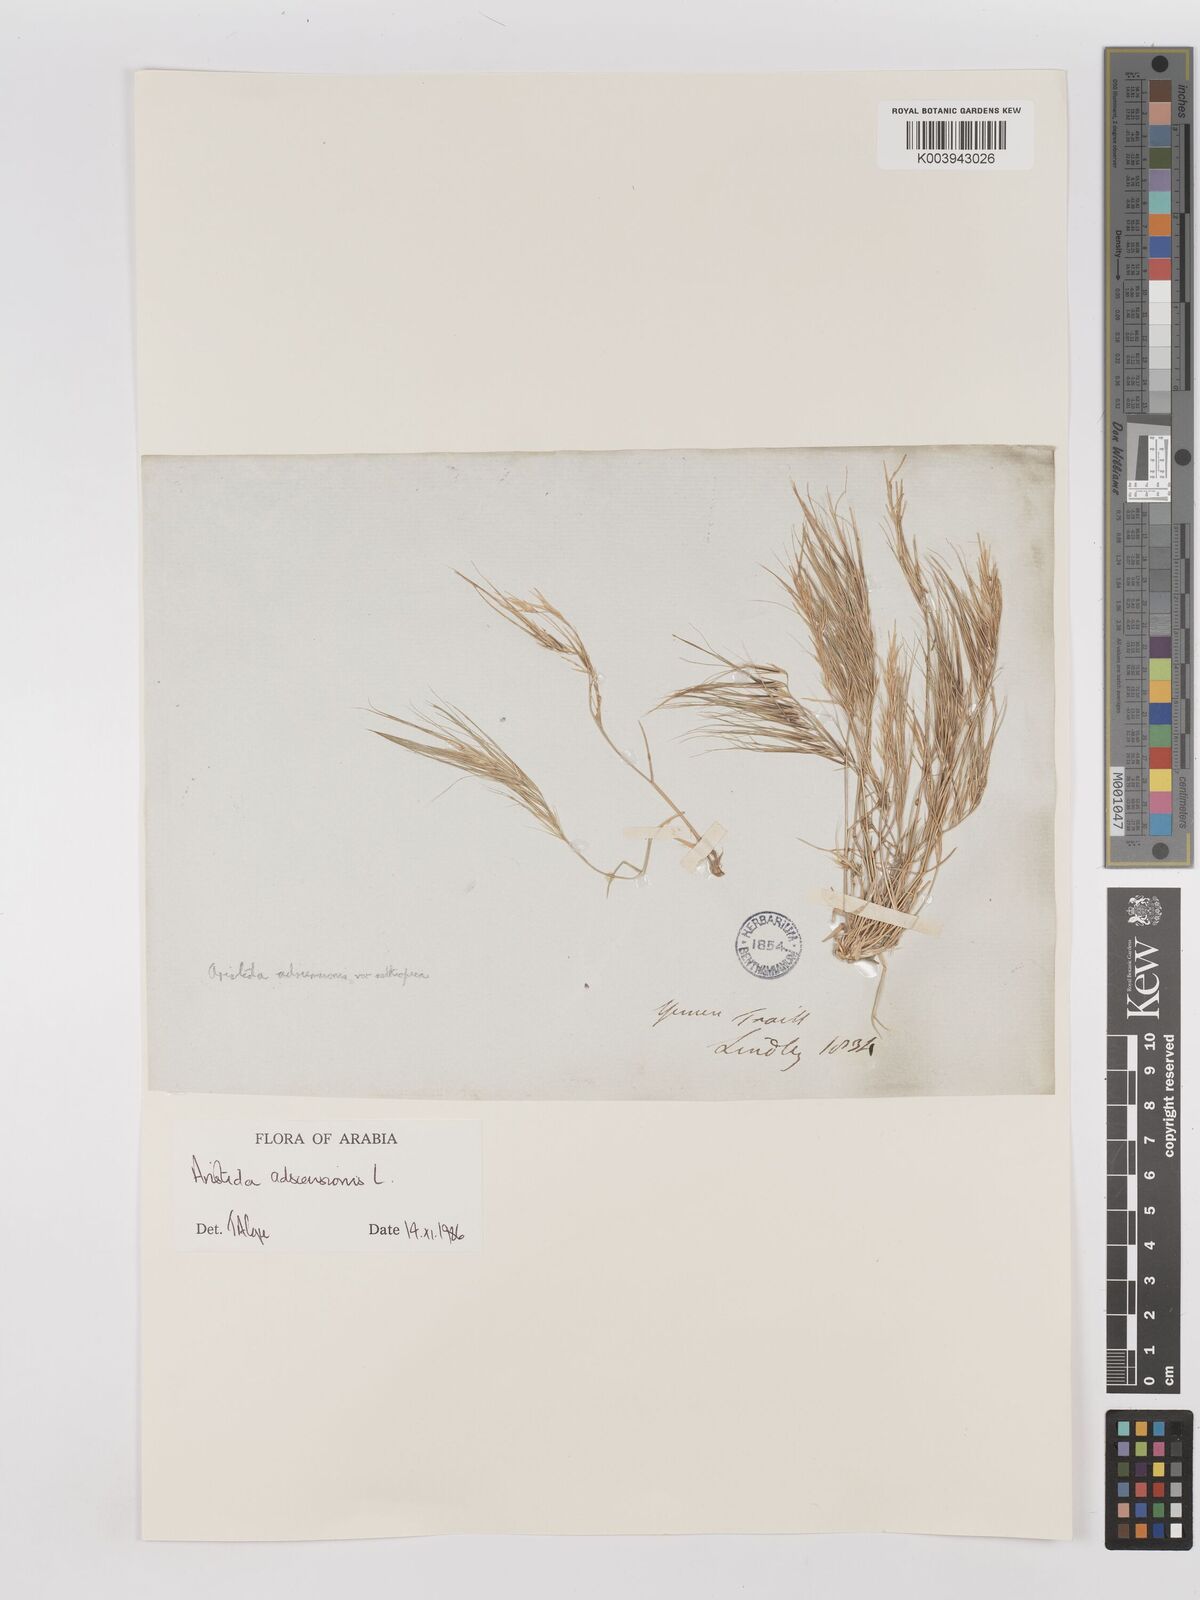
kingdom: Plantae
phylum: Tracheophyta
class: Liliopsida
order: Poales
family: Poaceae
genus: Aristida
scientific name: Aristida adscensionis
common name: Sixweeks threeawn
